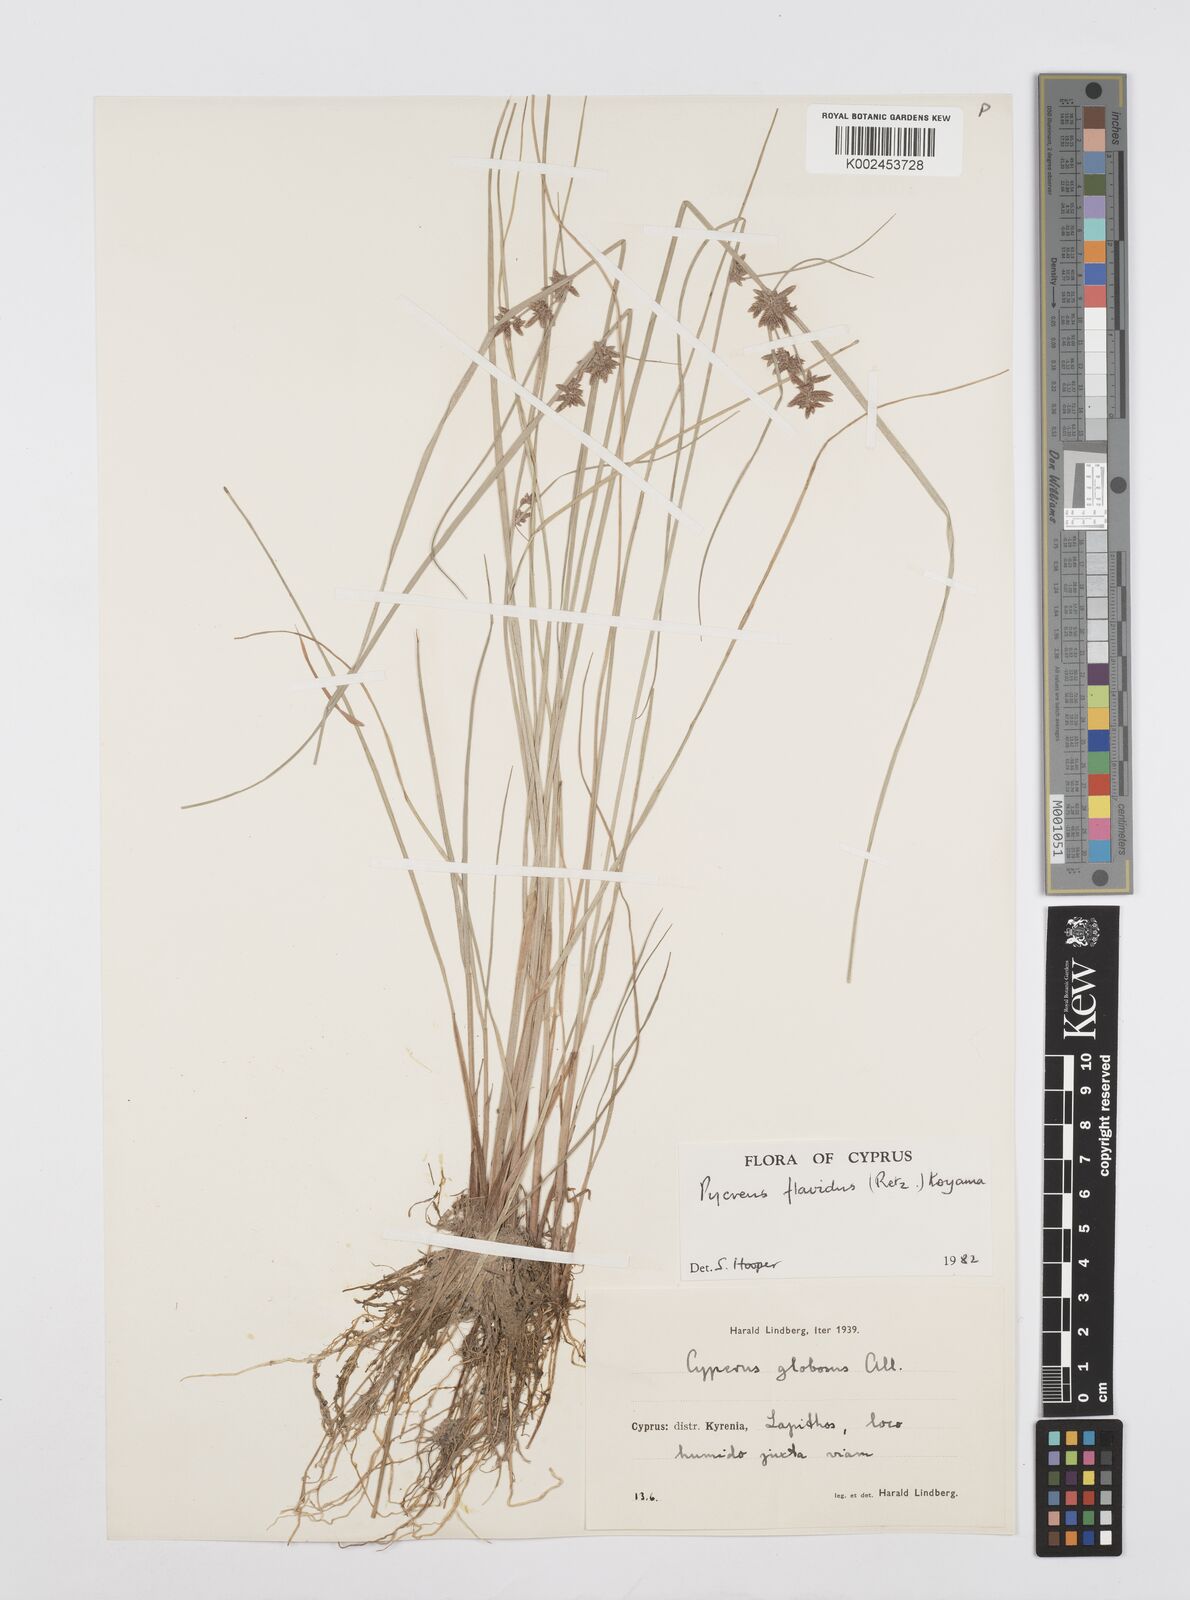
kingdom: Plantae
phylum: Tracheophyta
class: Liliopsida
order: Poales
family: Cyperaceae
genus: Cyperus
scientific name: Cyperus flavidus
